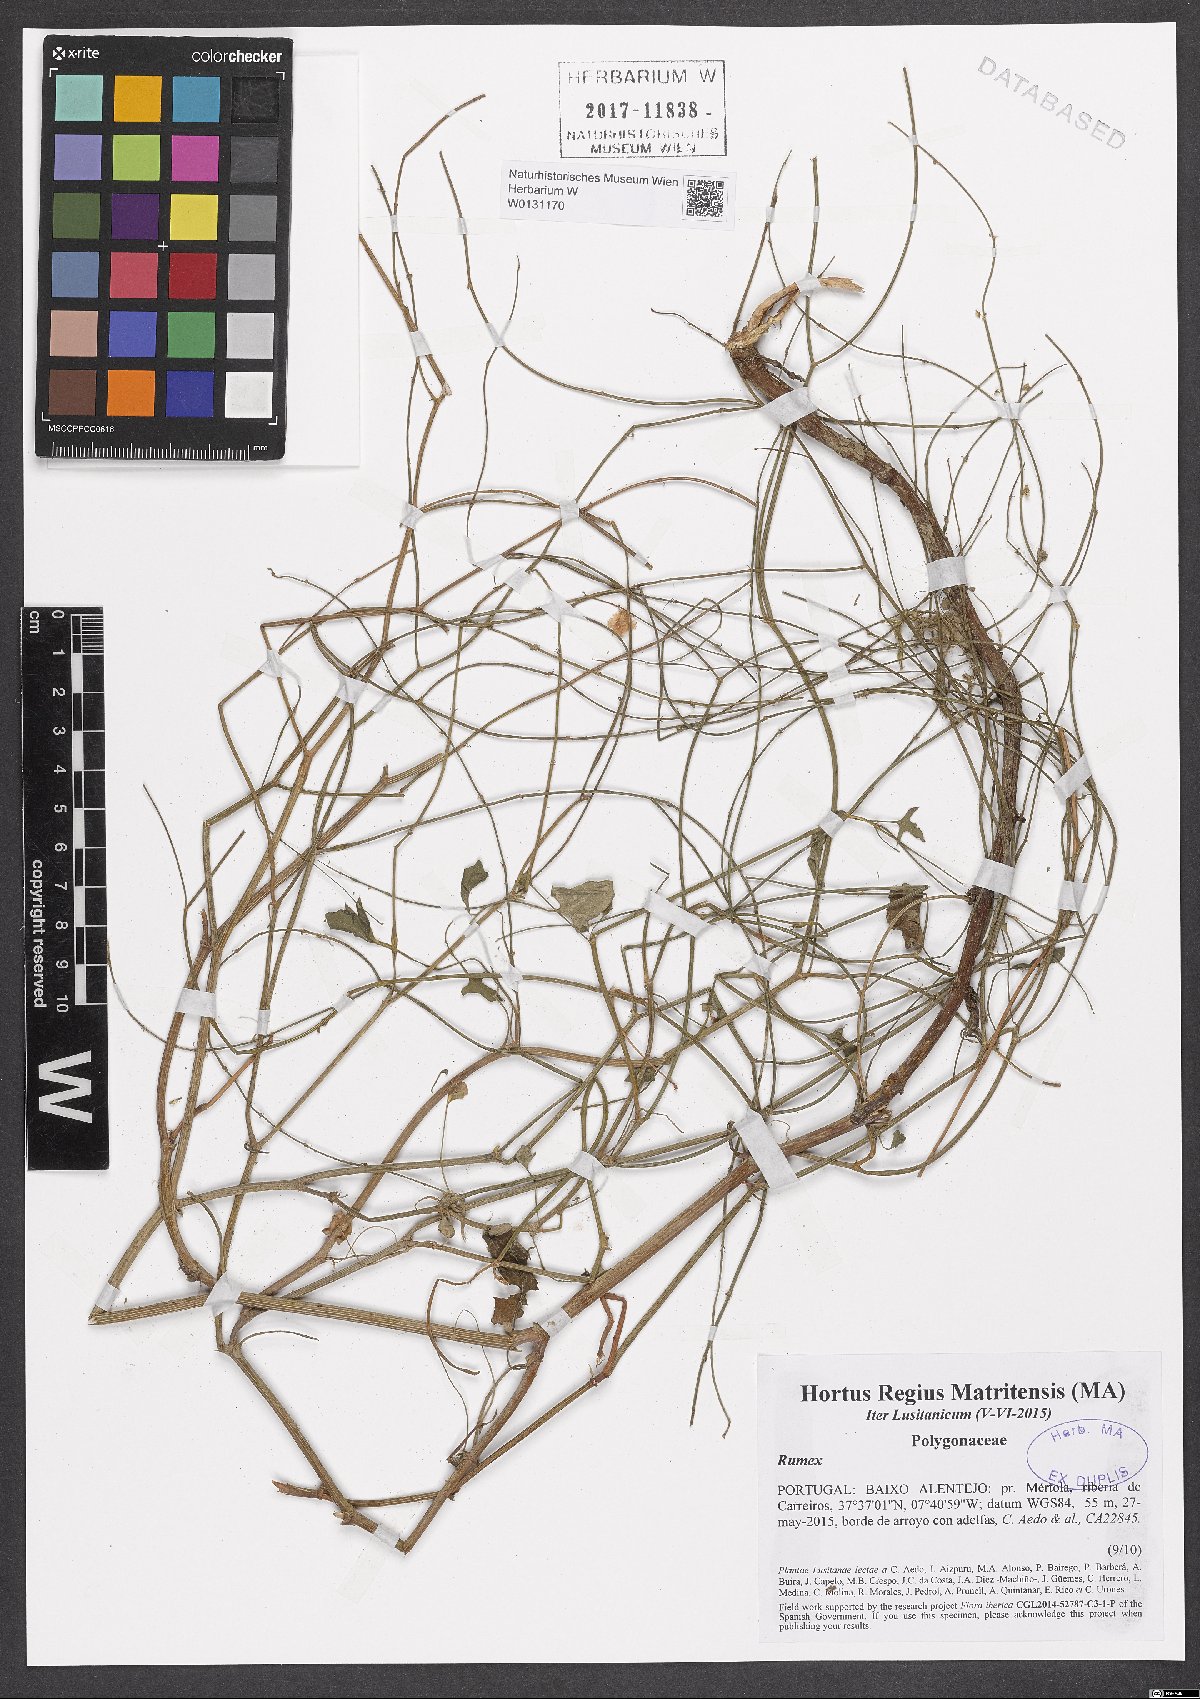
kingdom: Plantae
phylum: Tracheophyta
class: Magnoliopsida
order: Caryophyllales
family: Polygonaceae
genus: Rumex
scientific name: Rumex
